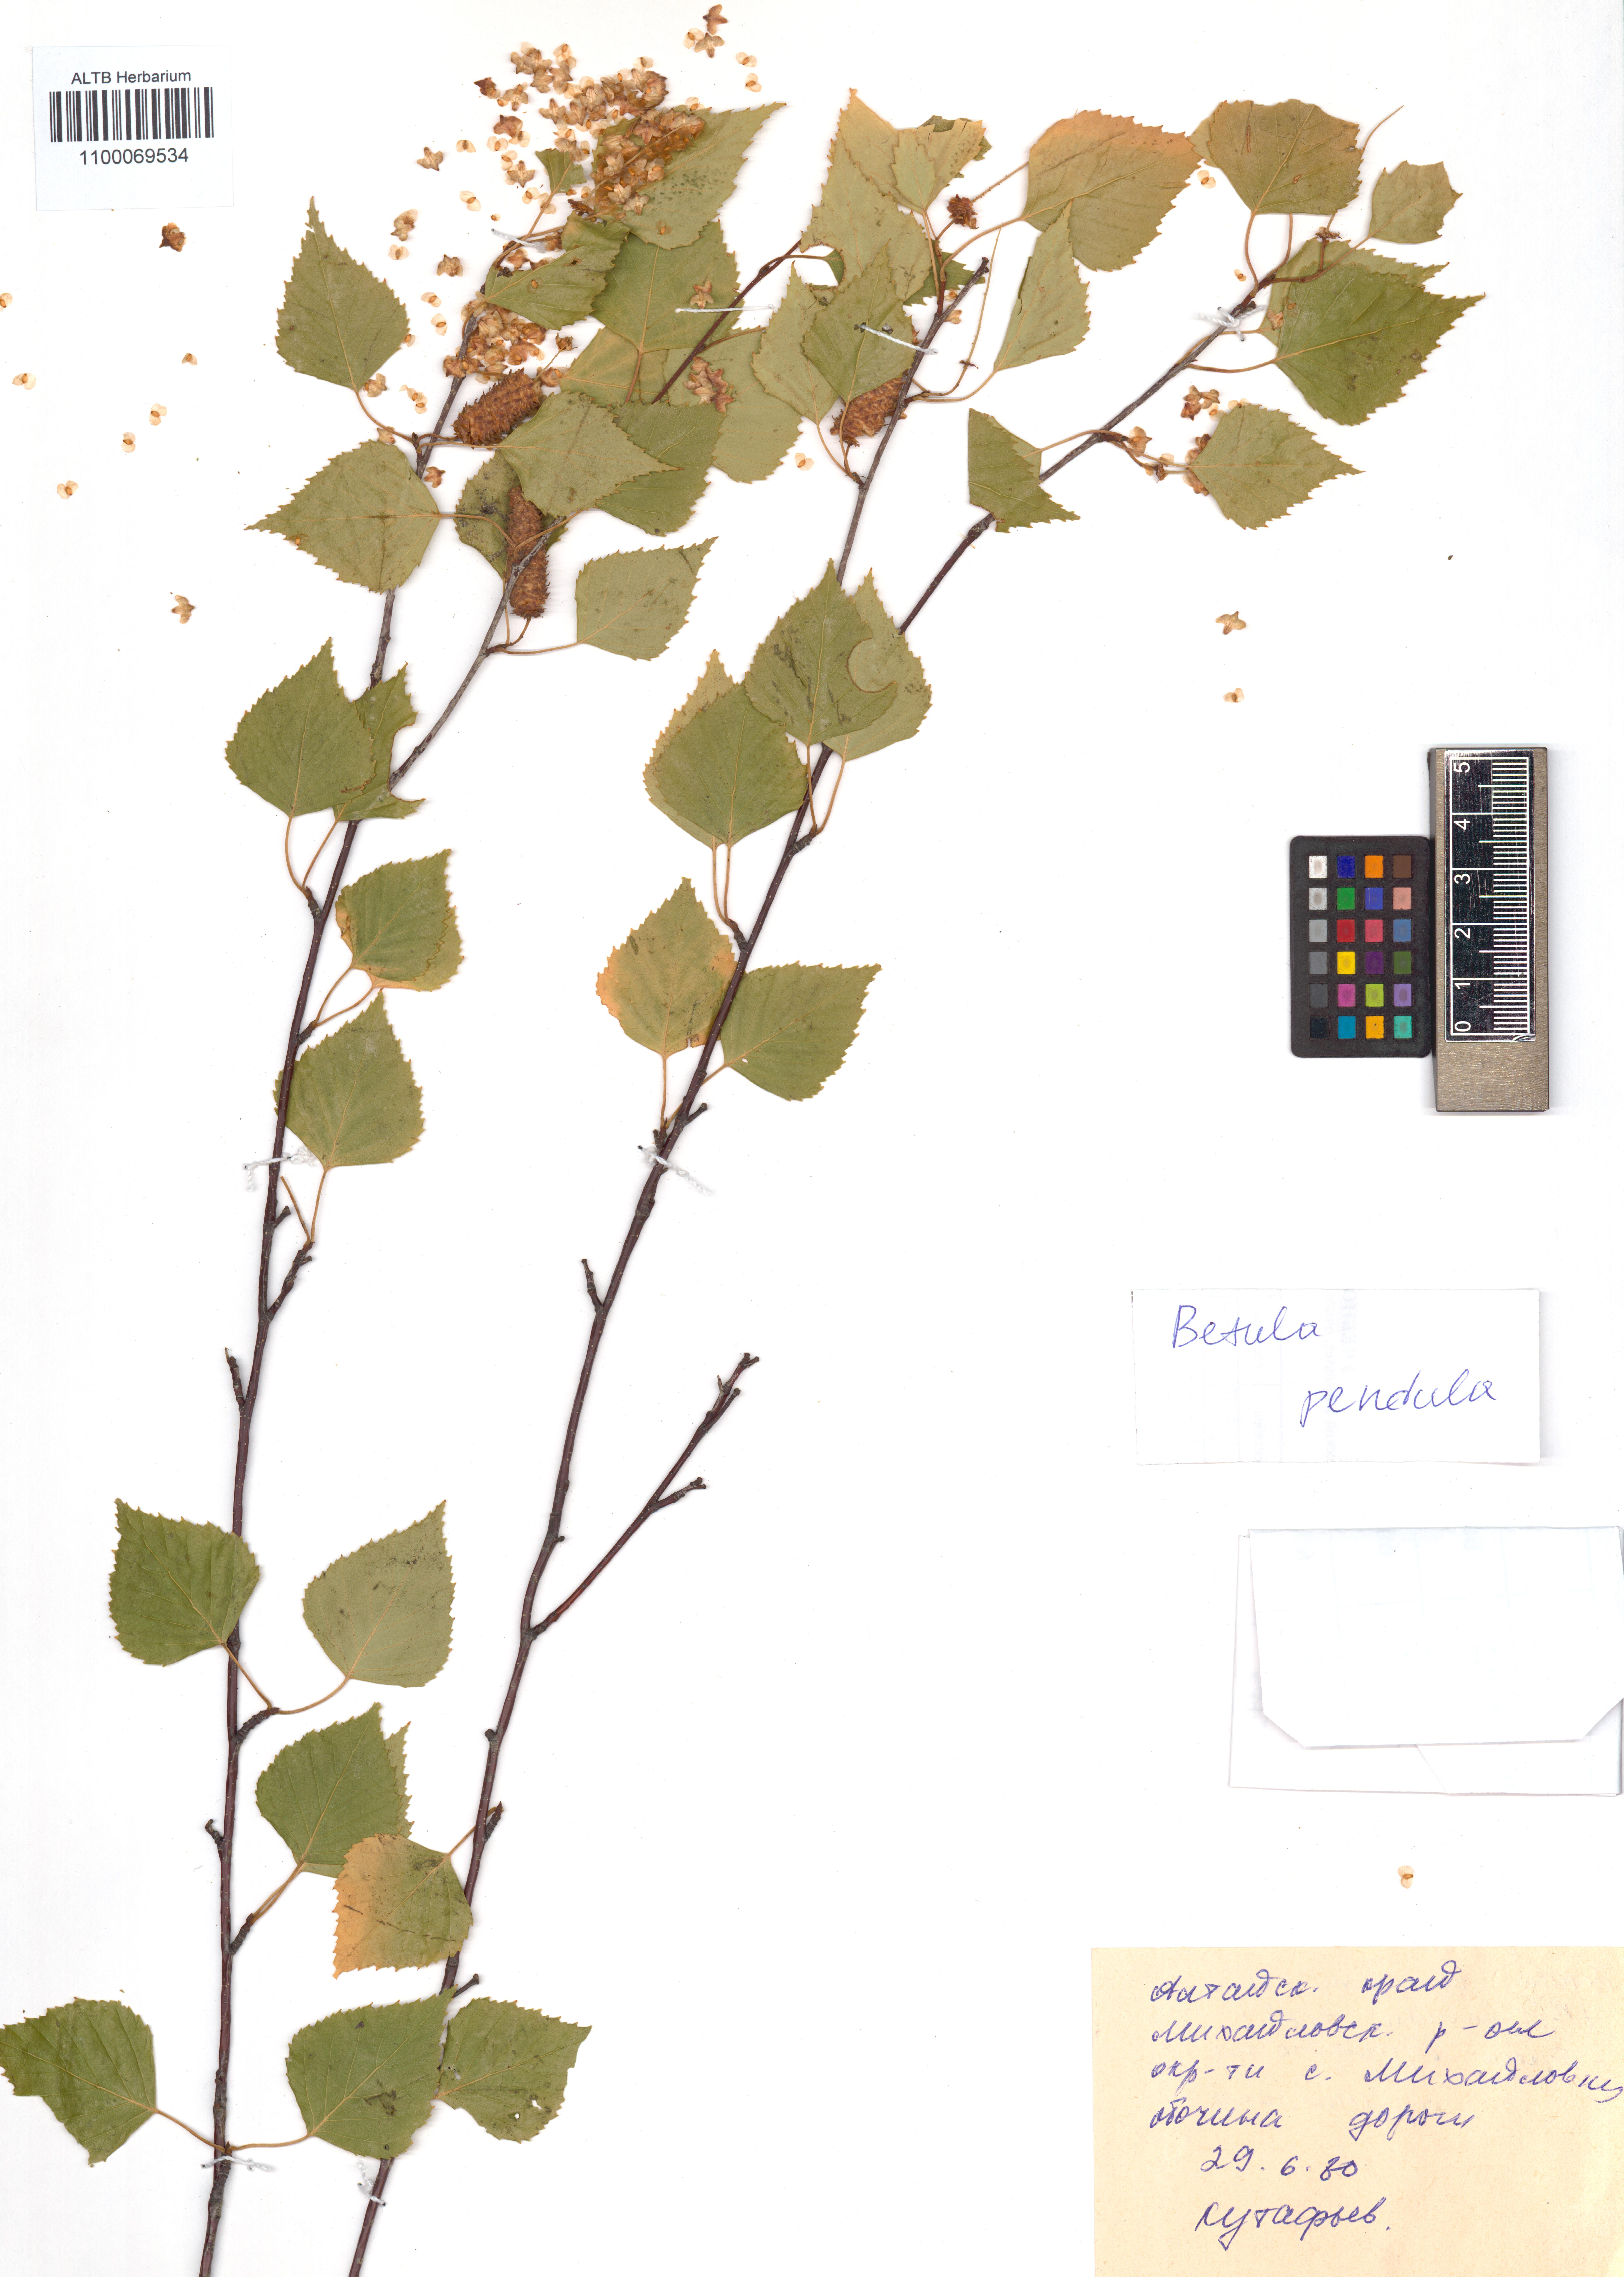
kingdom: Plantae
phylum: Tracheophyta
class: Magnoliopsida
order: Fagales
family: Betulaceae
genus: Betula
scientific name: Betula pendula
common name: Silver birch
